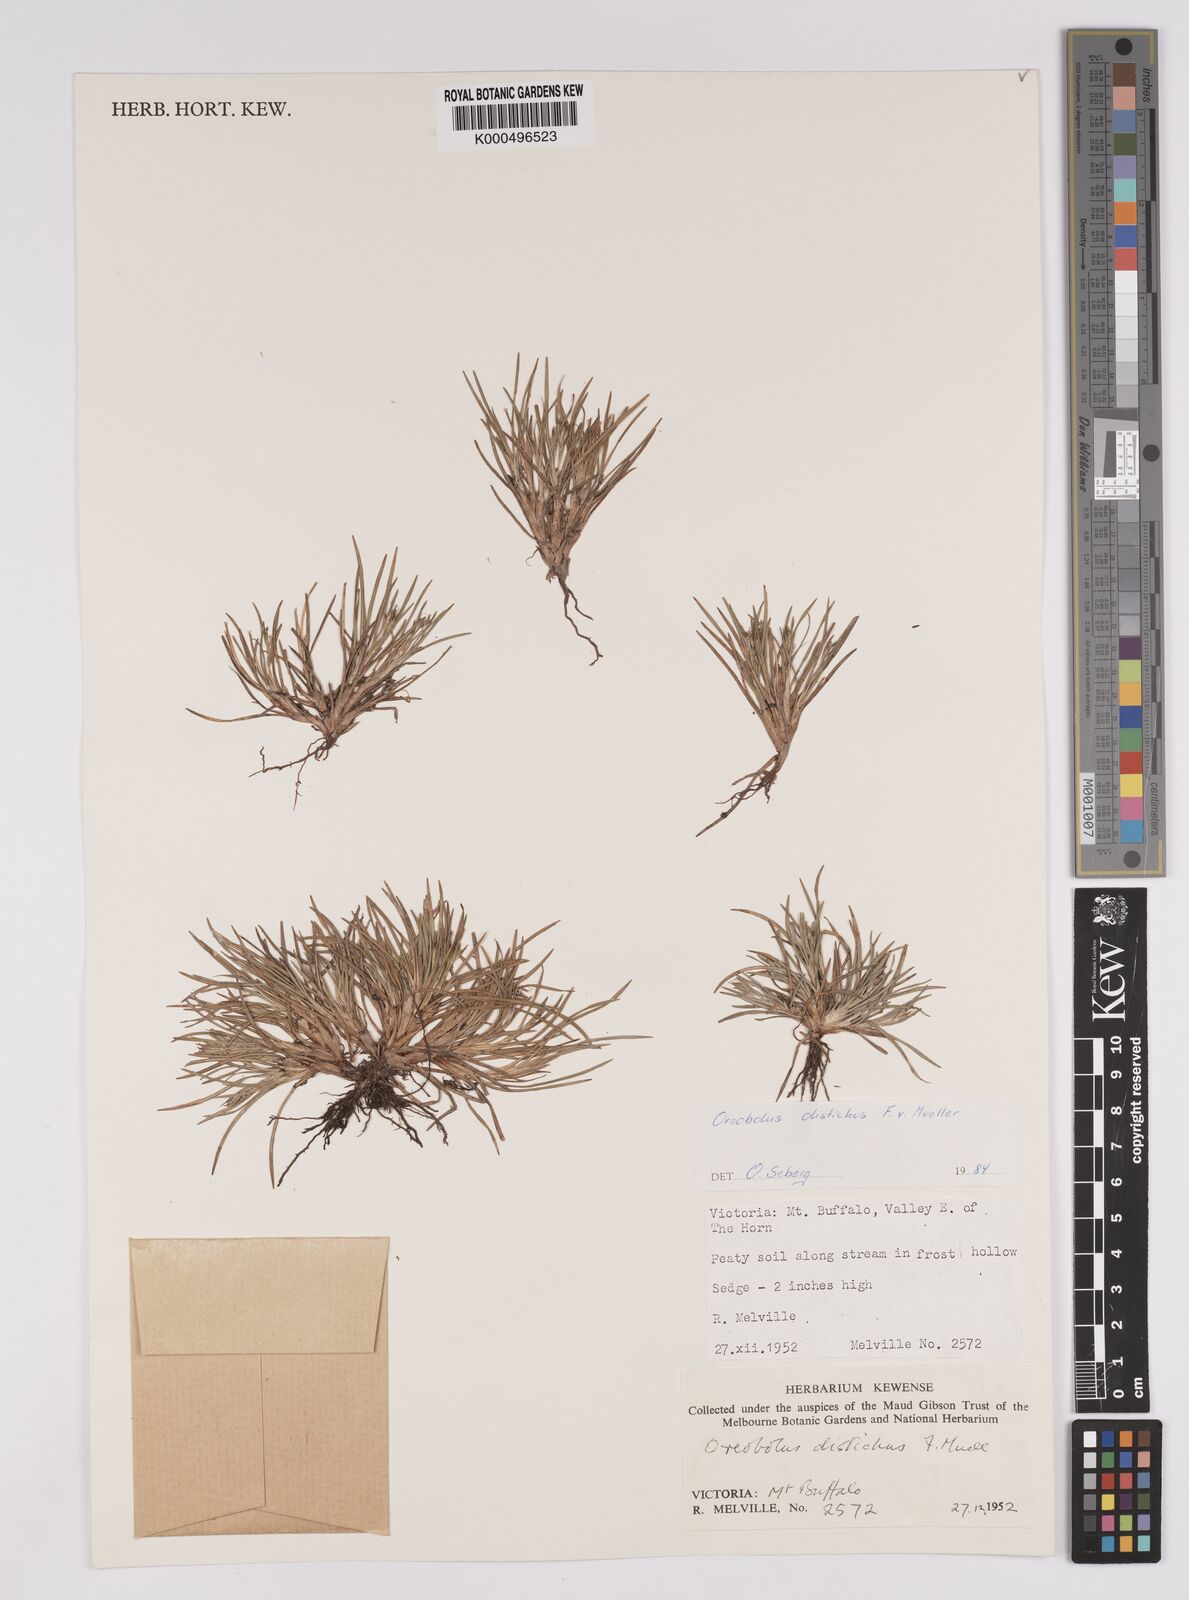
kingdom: Plantae
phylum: Tracheophyta
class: Liliopsida
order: Poales
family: Cyperaceae
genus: Oreobolus
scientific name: Oreobolus
